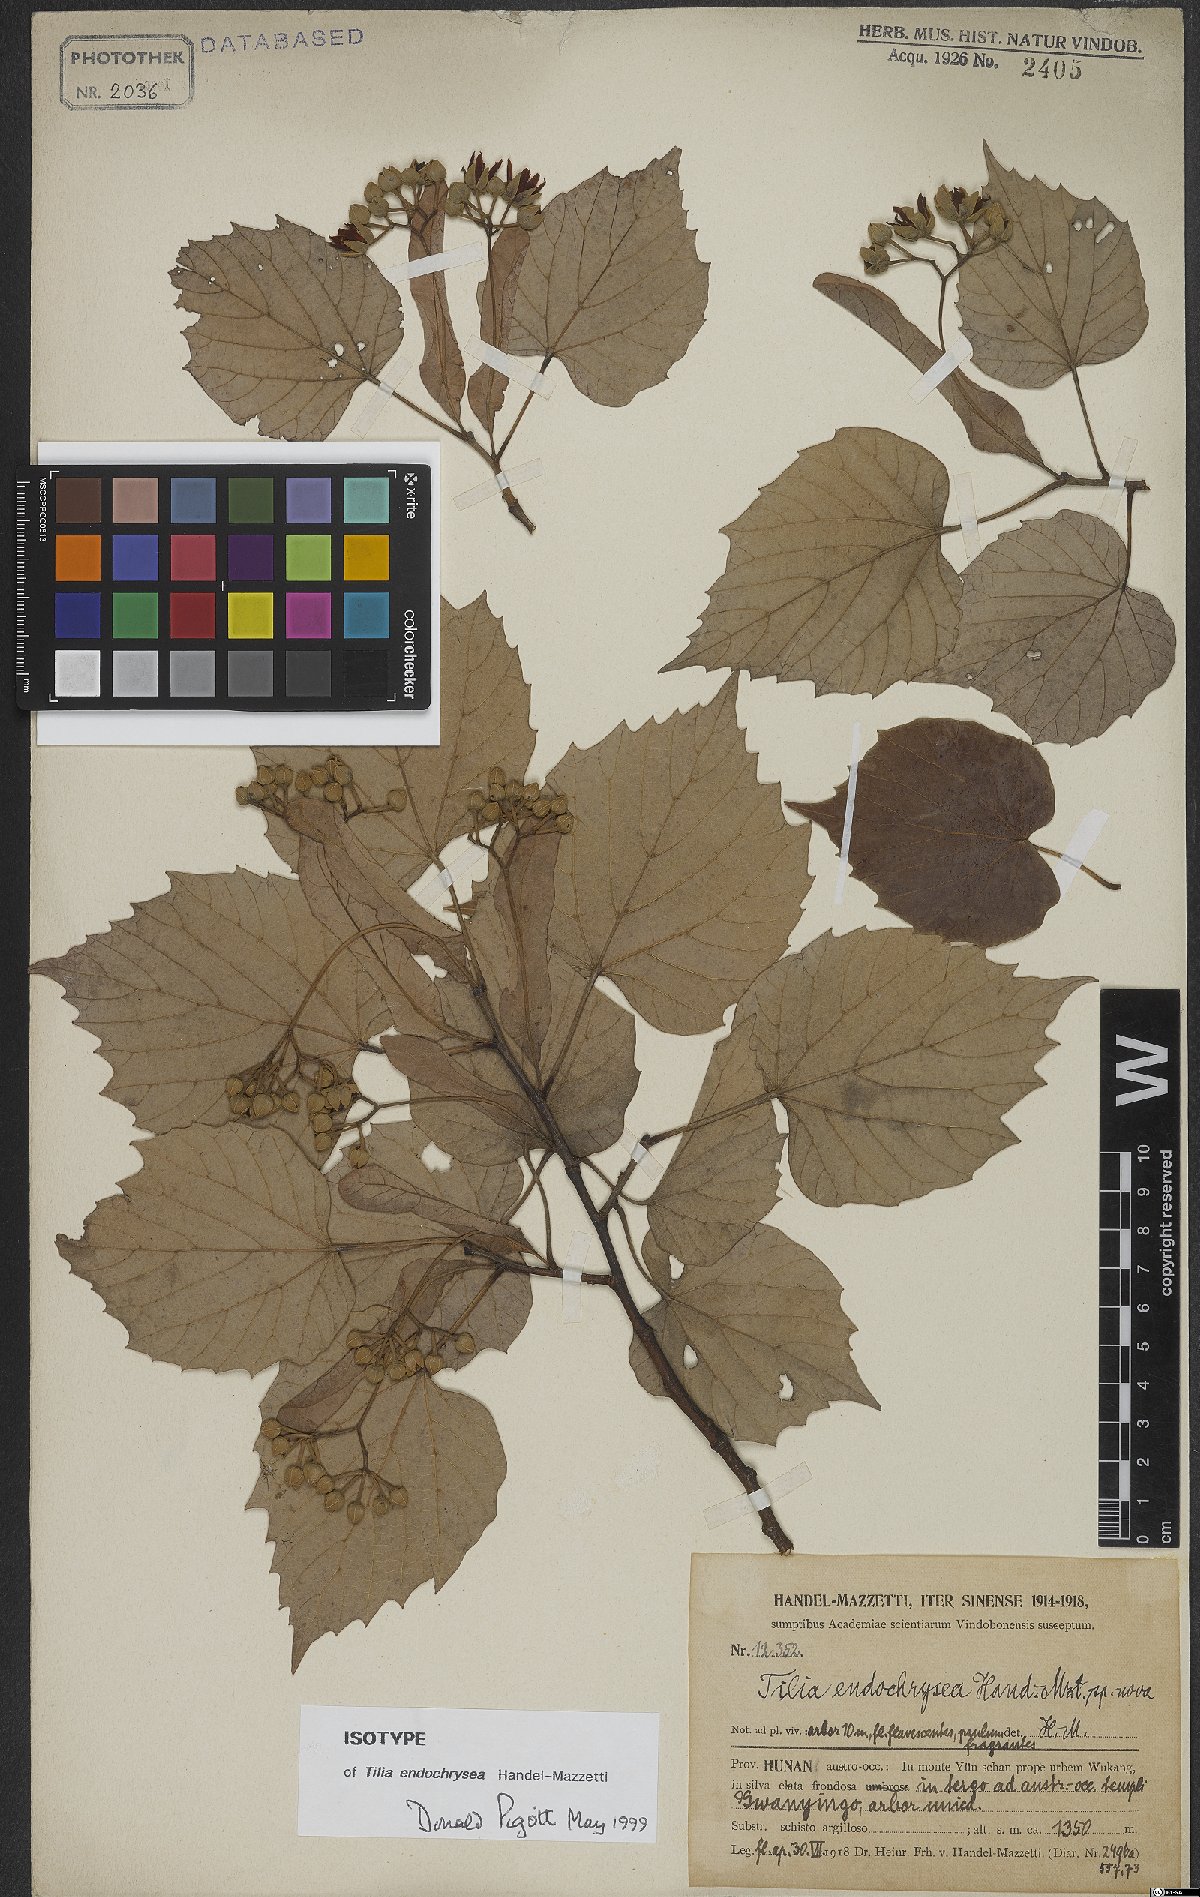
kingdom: Plantae
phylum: Tracheophyta
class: Magnoliopsida
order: Malvales
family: Malvaceae
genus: Tilia
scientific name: Tilia endochrysea
